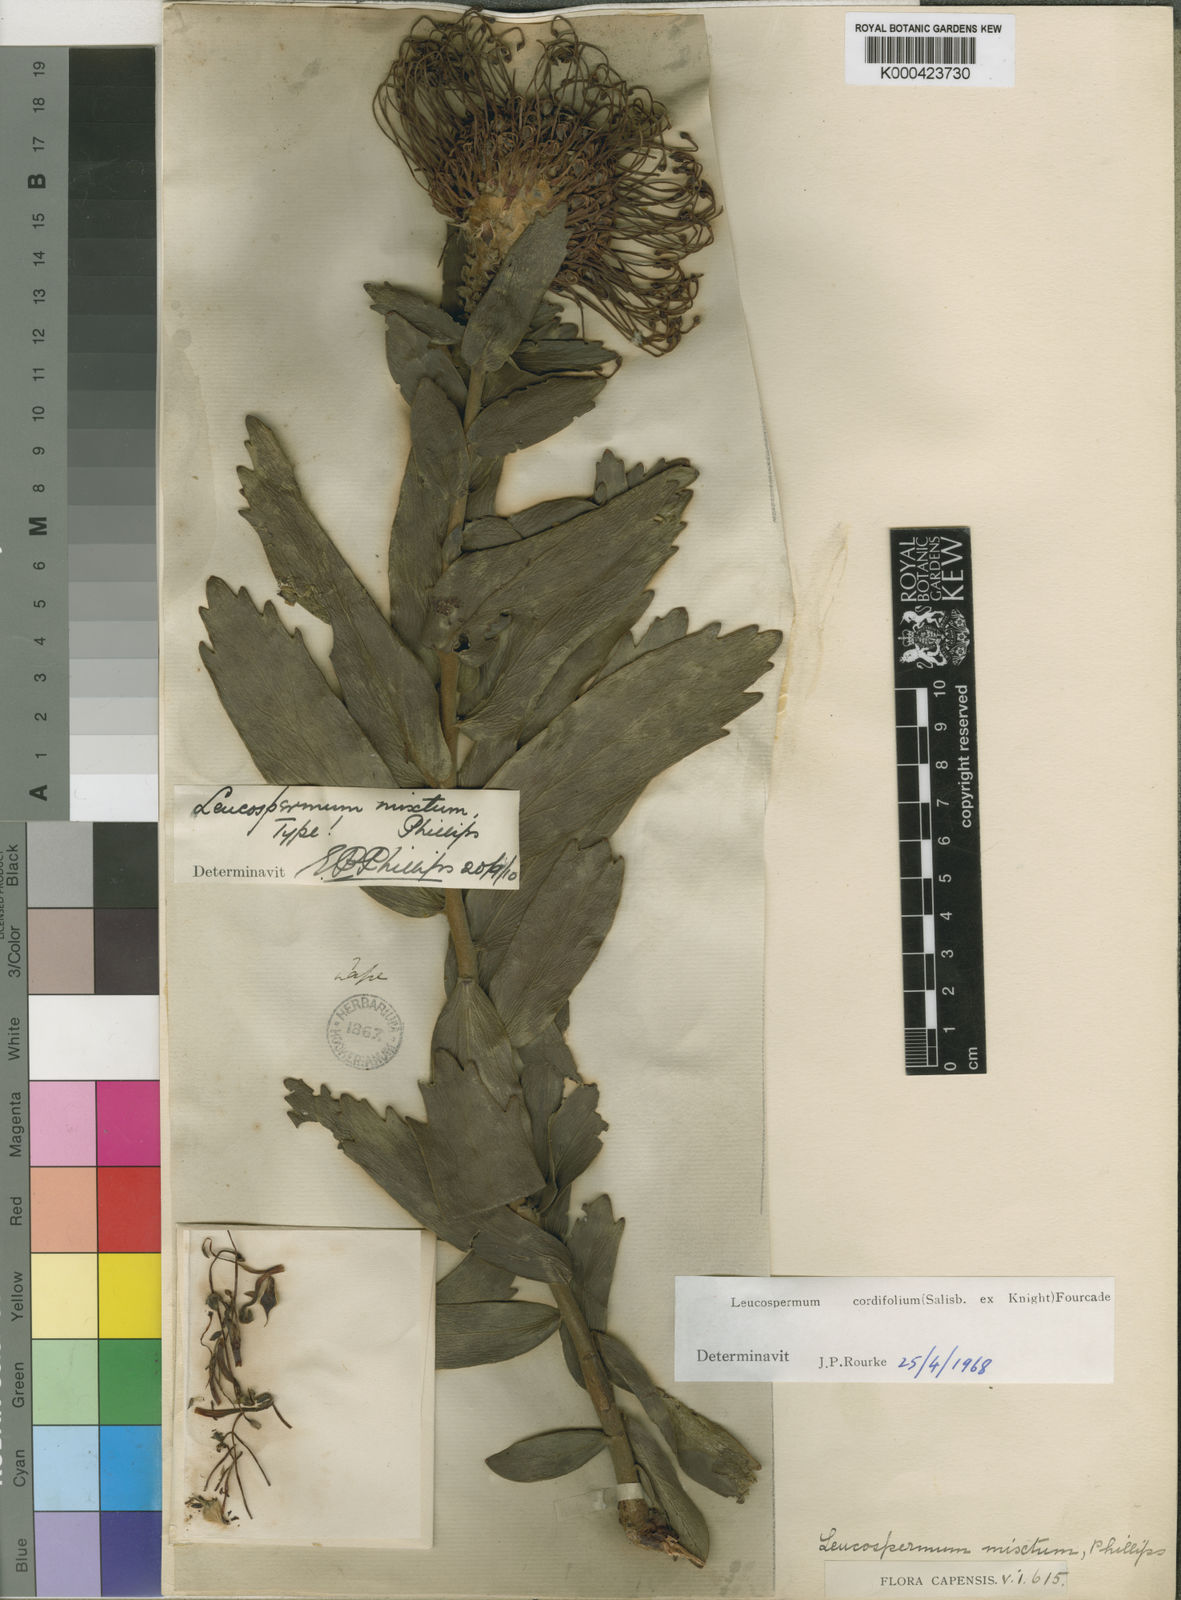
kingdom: Plantae
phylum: Tracheophyta
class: Magnoliopsida
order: Proteales
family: Proteaceae
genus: Leucospermum
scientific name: Leucospermum cordifolium
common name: Red pincushion-protea
